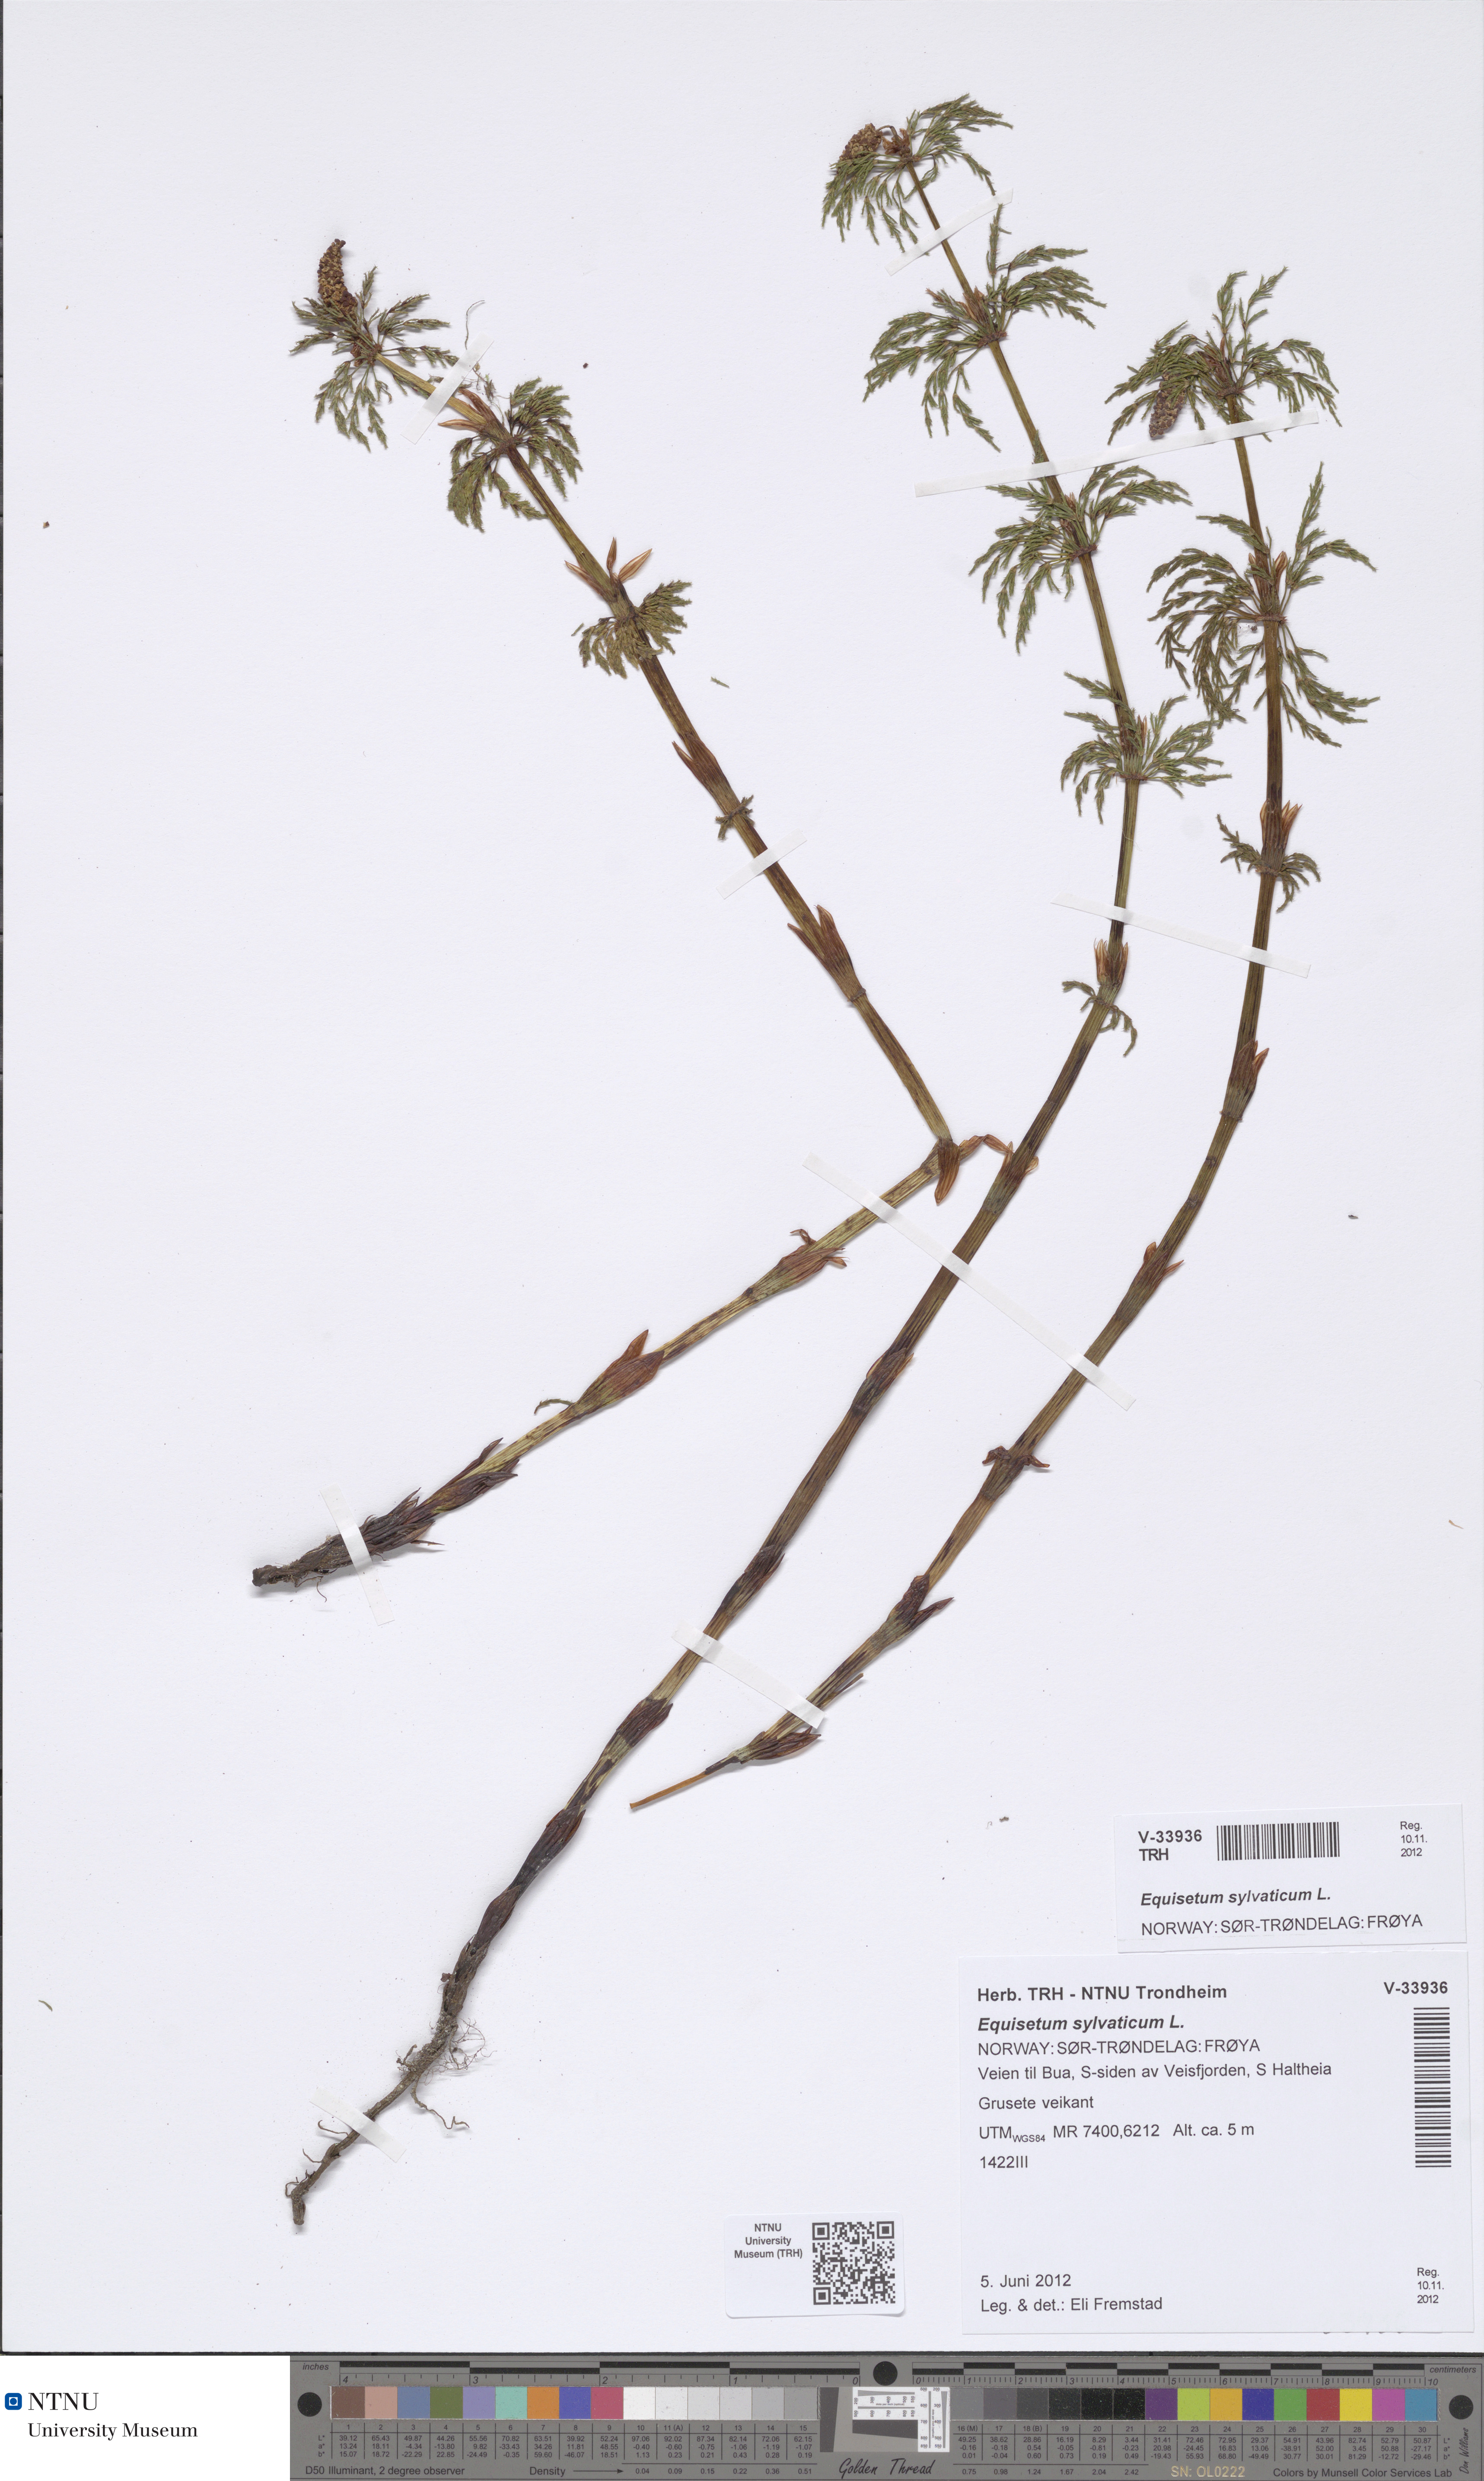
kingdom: Plantae
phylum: Tracheophyta
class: Polypodiopsida
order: Equisetales
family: Equisetaceae
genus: Equisetum
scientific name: Equisetum sylvaticum
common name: Wood horsetail
